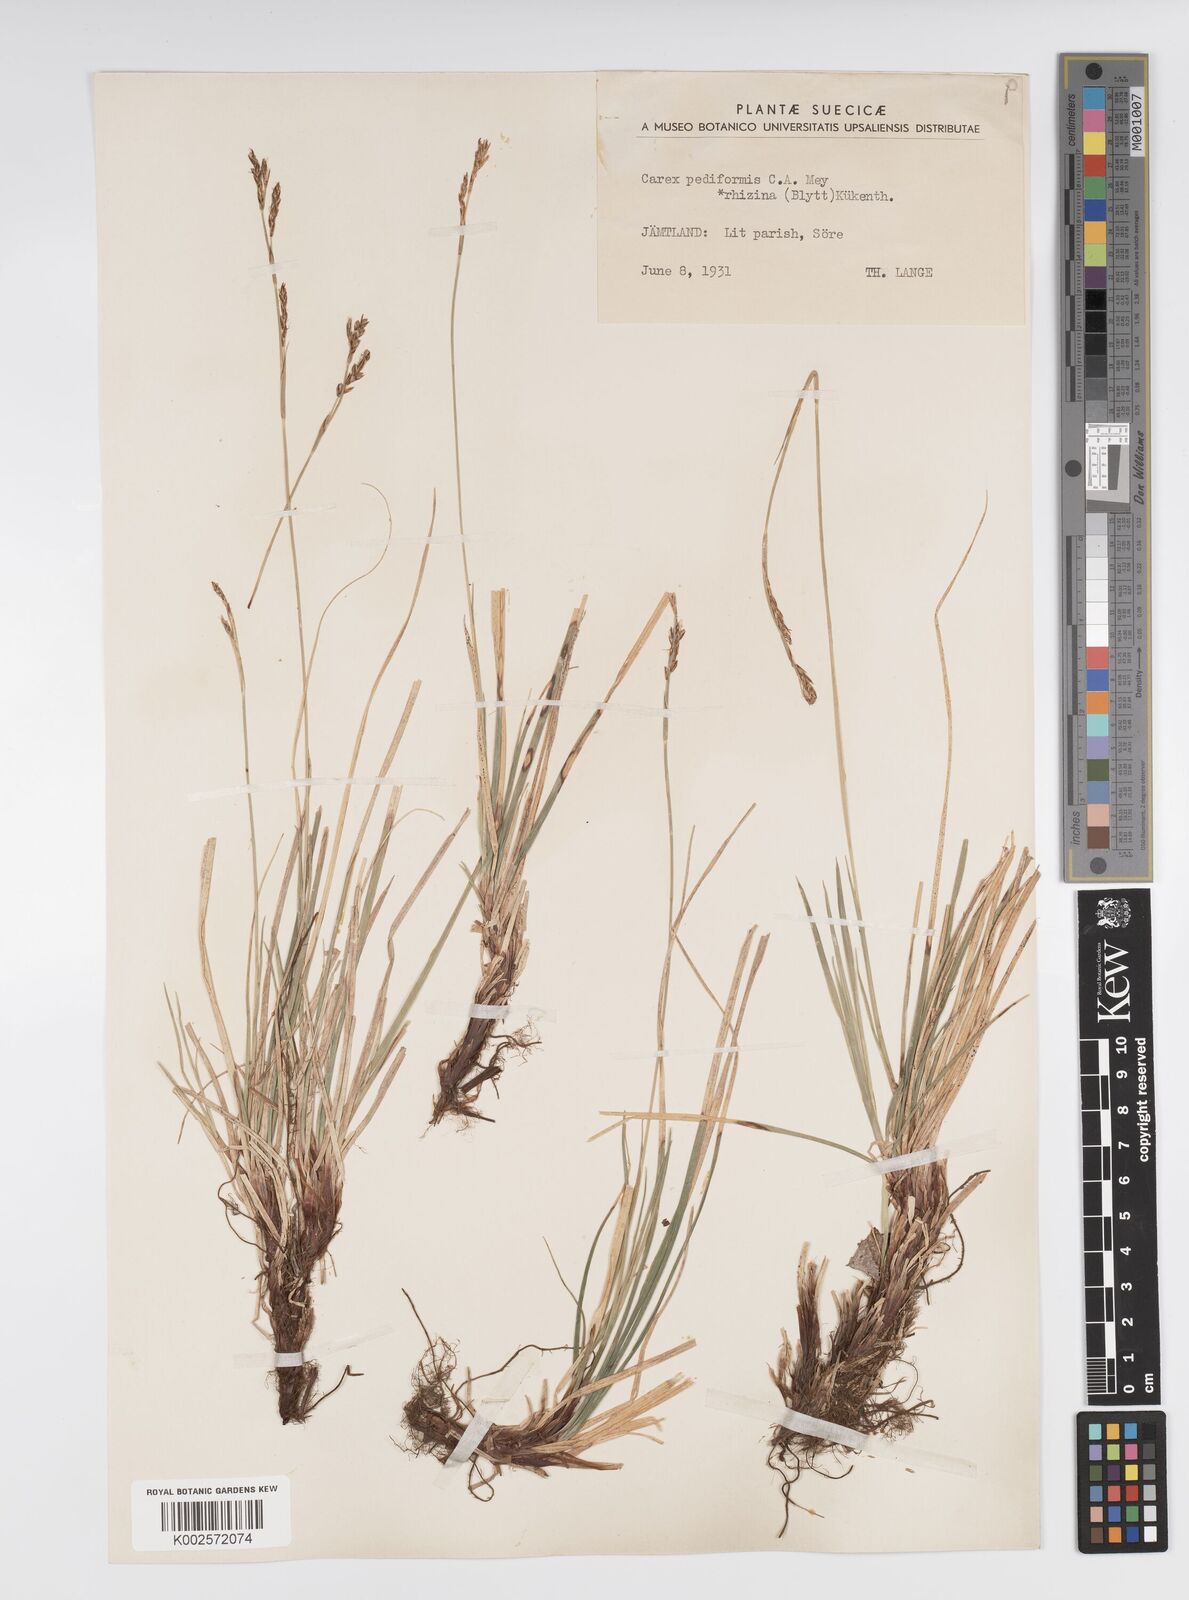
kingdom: Plantae
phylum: Tracheophyta
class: Liliopsida
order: Poales
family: Cyperaceae
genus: Carex
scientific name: Carex pediformis
